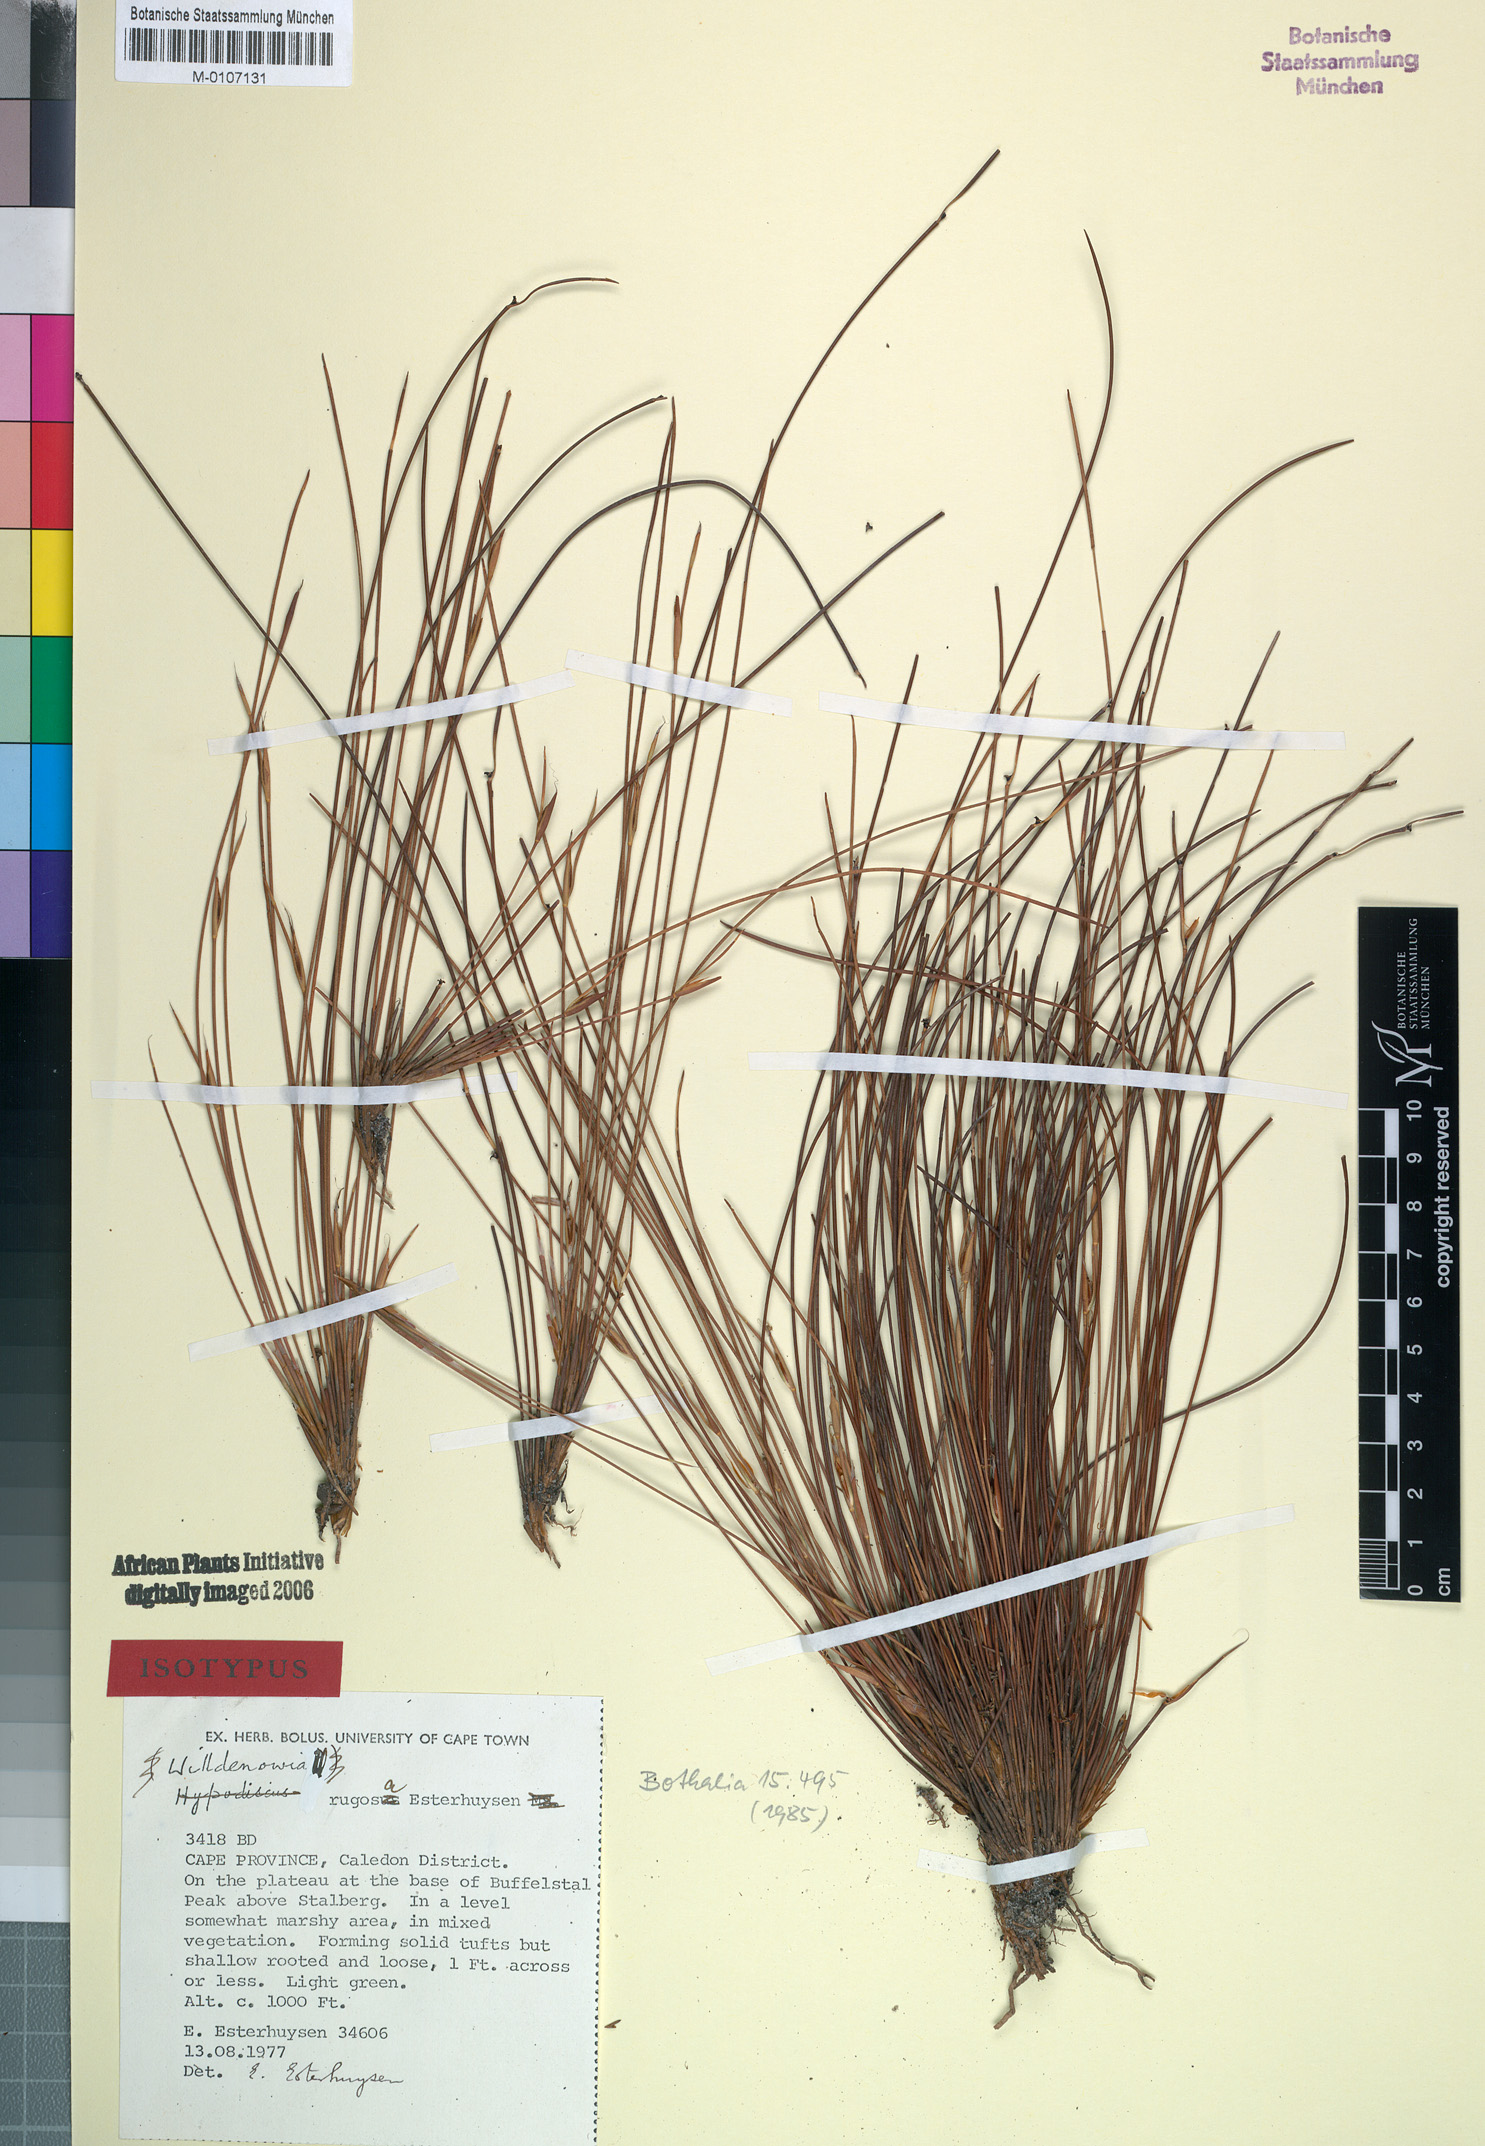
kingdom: Plantae
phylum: Tracheophyta
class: Liliopsida
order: Poales
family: Restionaceae
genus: Willdenowia
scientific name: Willdenowia rugosa
